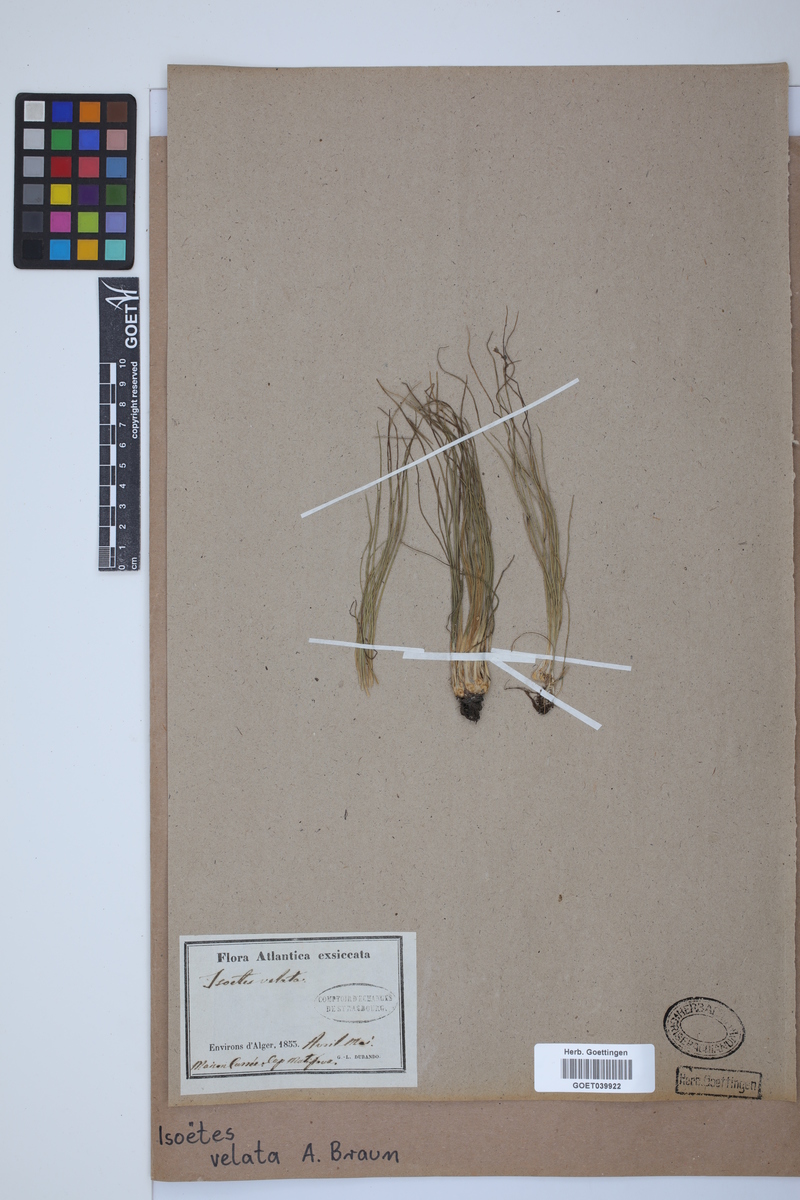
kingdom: Plantae
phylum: Tracheophyta
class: Lycopodiopsida
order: Isoetales
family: Isoetaceae
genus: Isoetes
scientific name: Isoetes longissima
